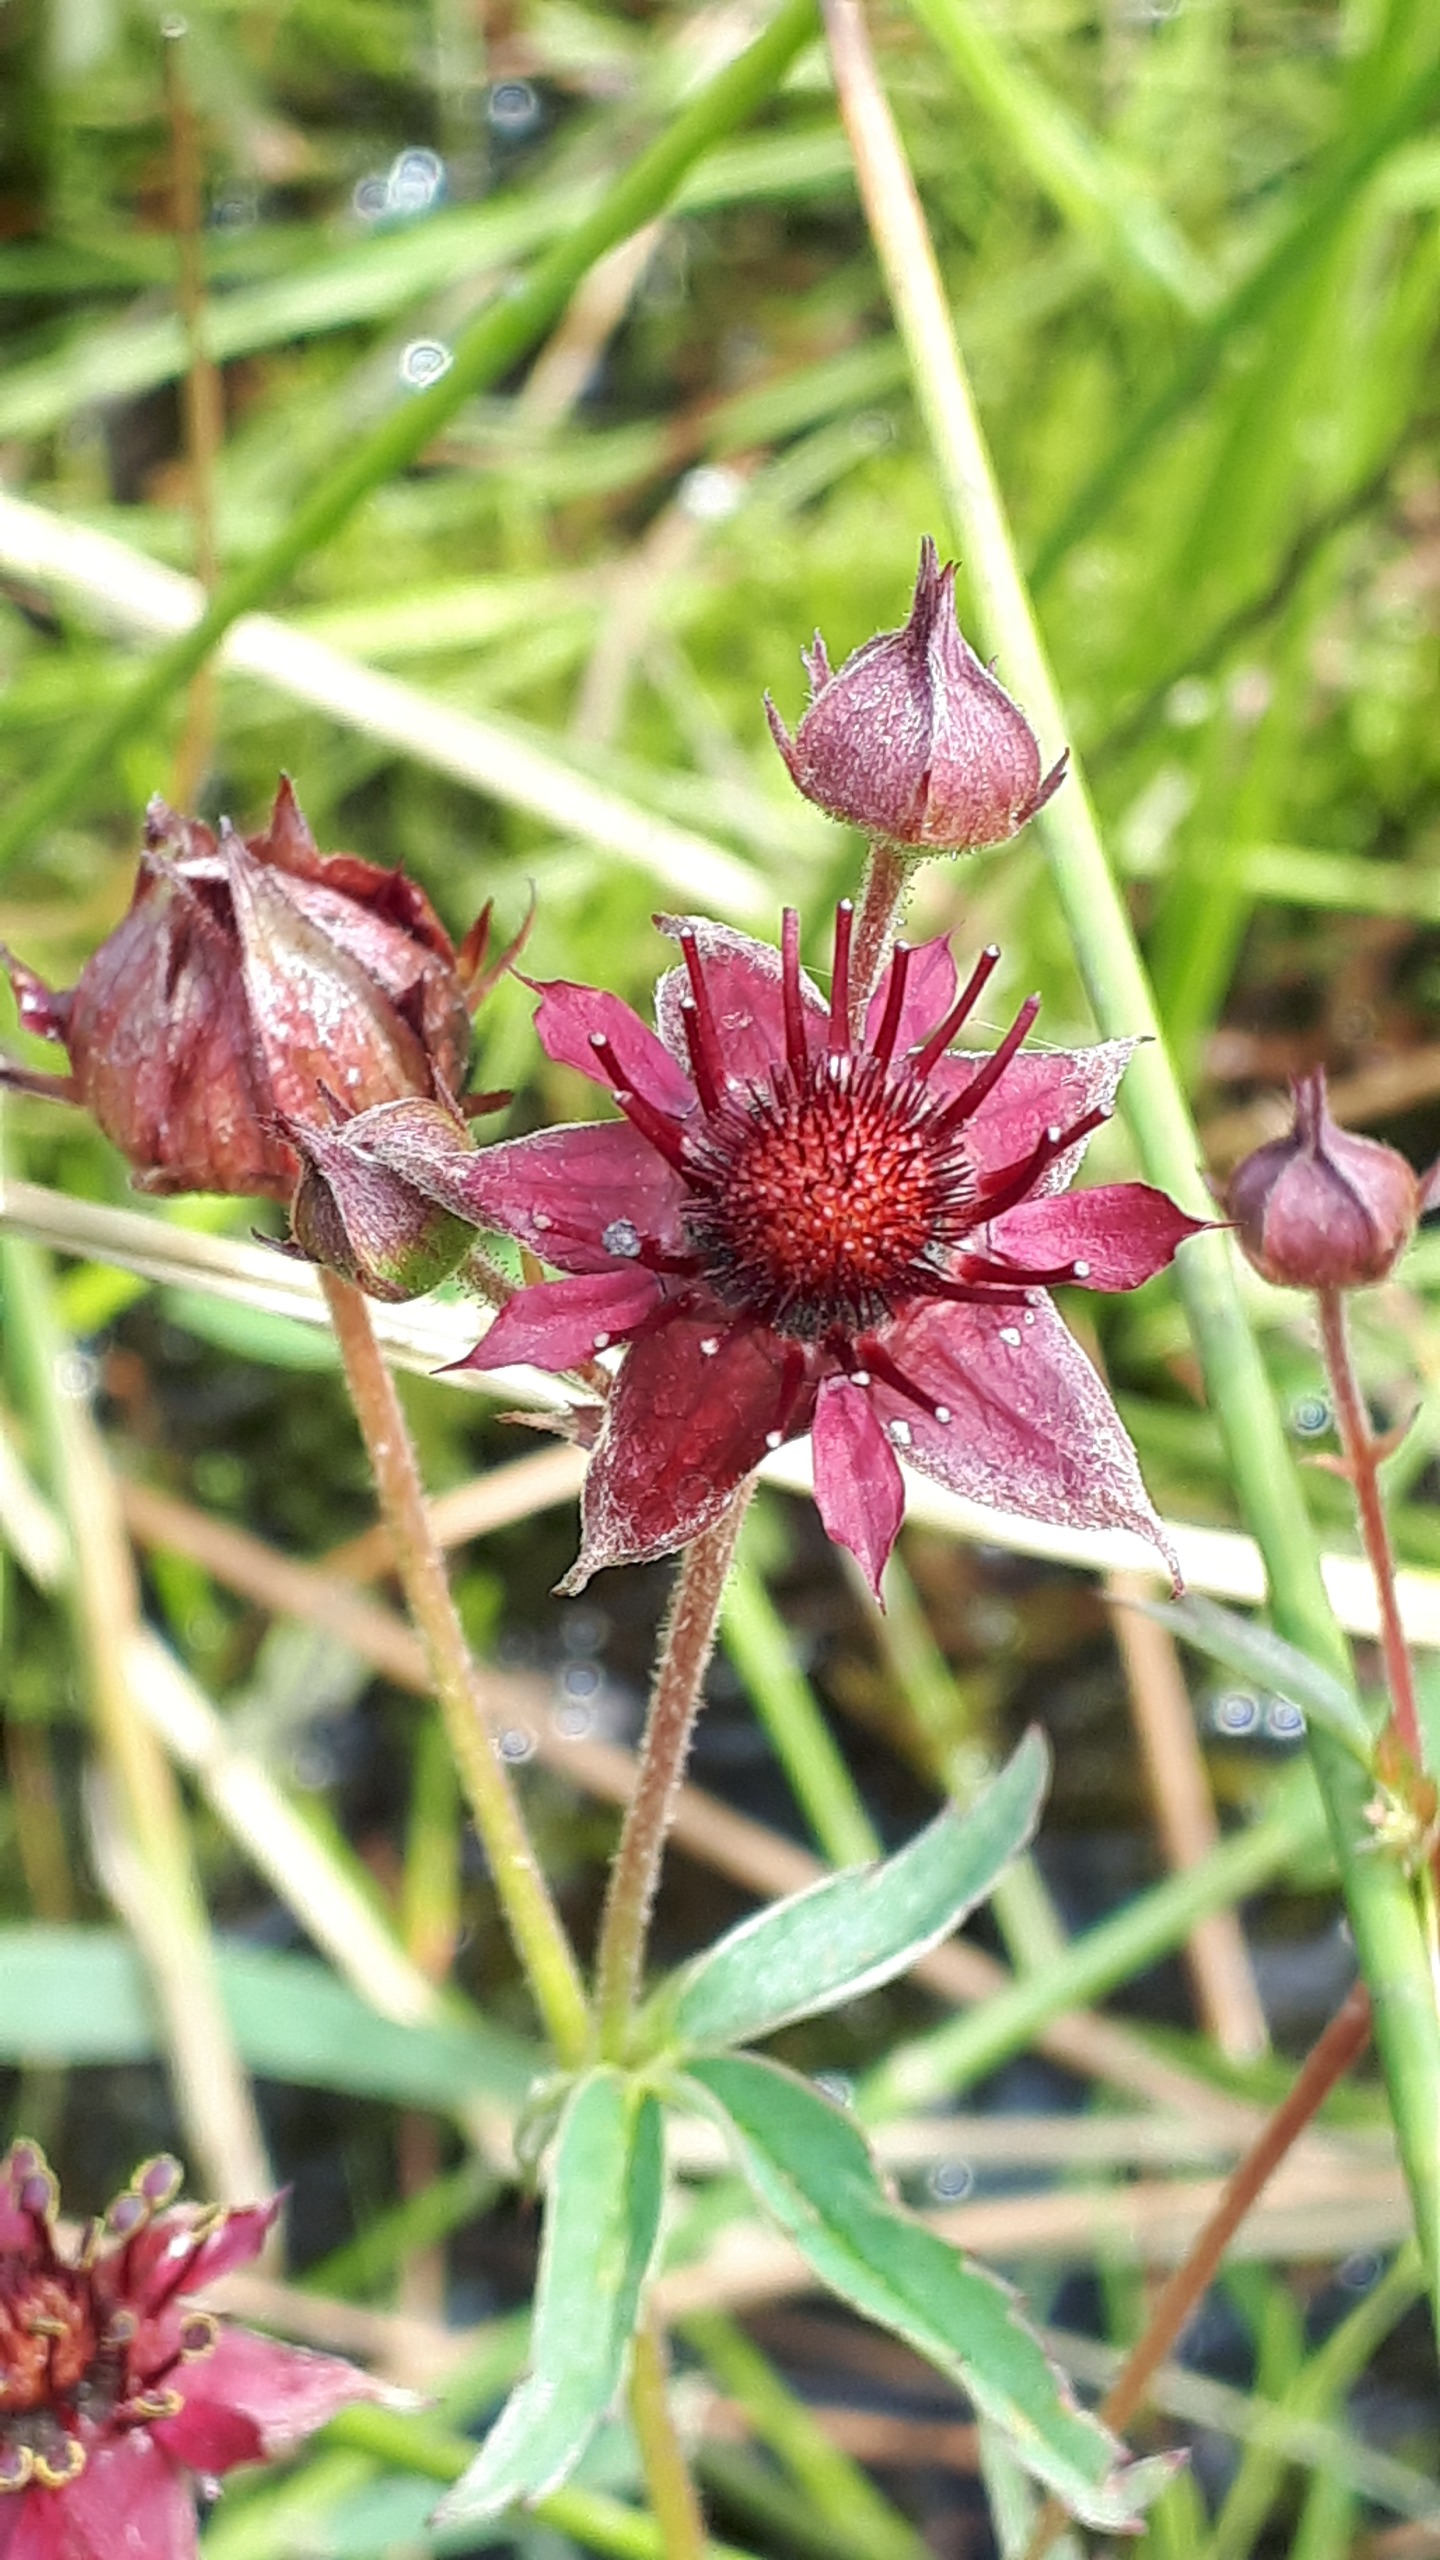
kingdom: Plantae
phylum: Tracheophyta
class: Magnoliopsida
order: Rosales
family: Rosaceae
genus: Comarum
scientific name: Comarum palustre
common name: Kragefod
